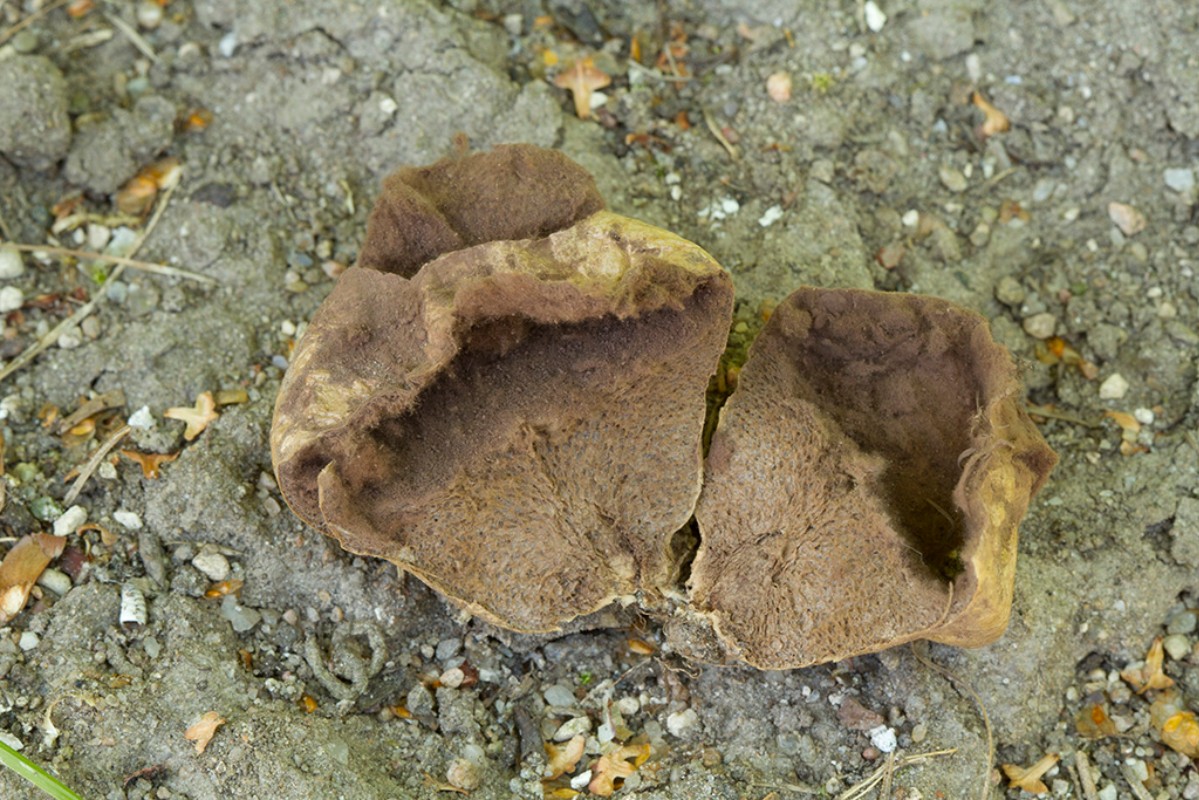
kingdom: Fungi
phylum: Basidiomycota
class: Agaricomycetes
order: Agaricales
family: Lycoperdaceae
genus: Lycoperdon
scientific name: Lycoperdon decipiens
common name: rod-støvbold
